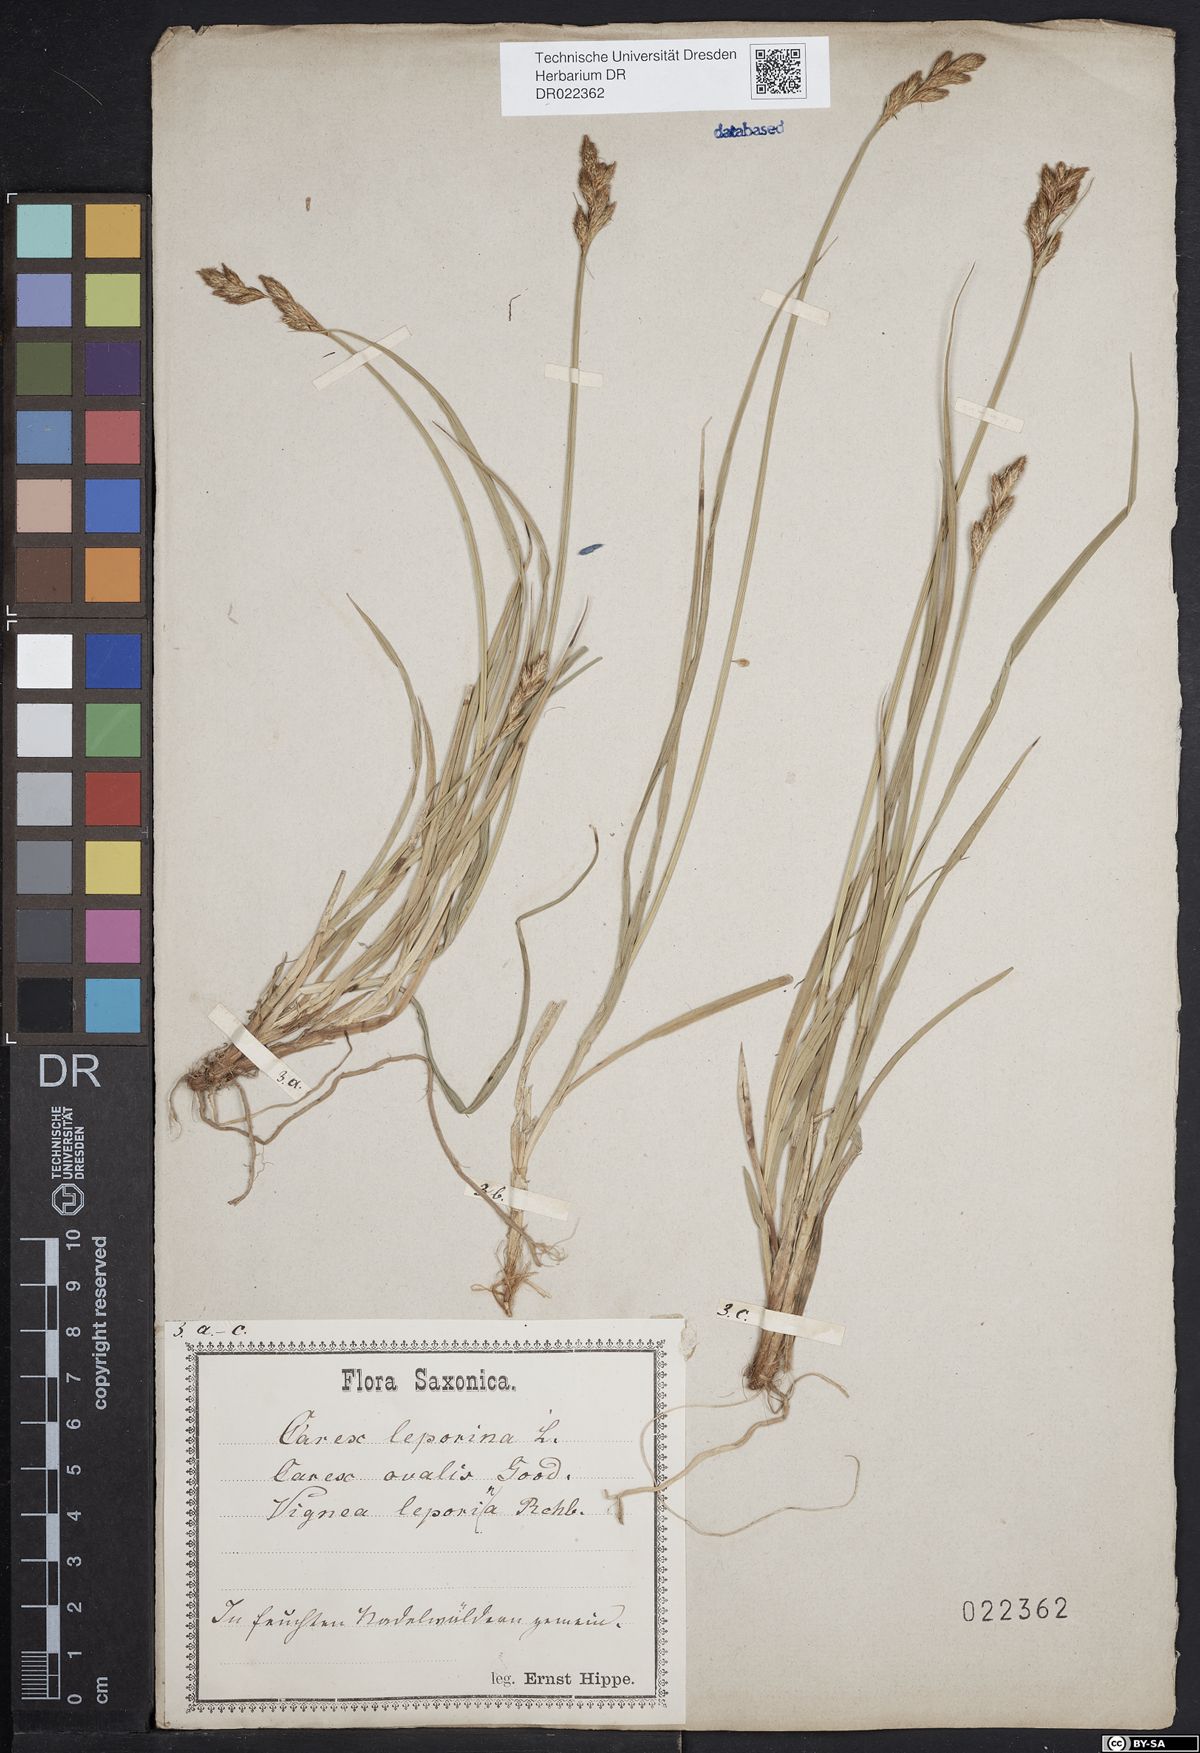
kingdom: Plantae
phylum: Tracheophyta
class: Liliopsida
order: Poales
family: Cyperaceae
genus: Carex
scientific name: Carex leporina
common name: Oval sedge
